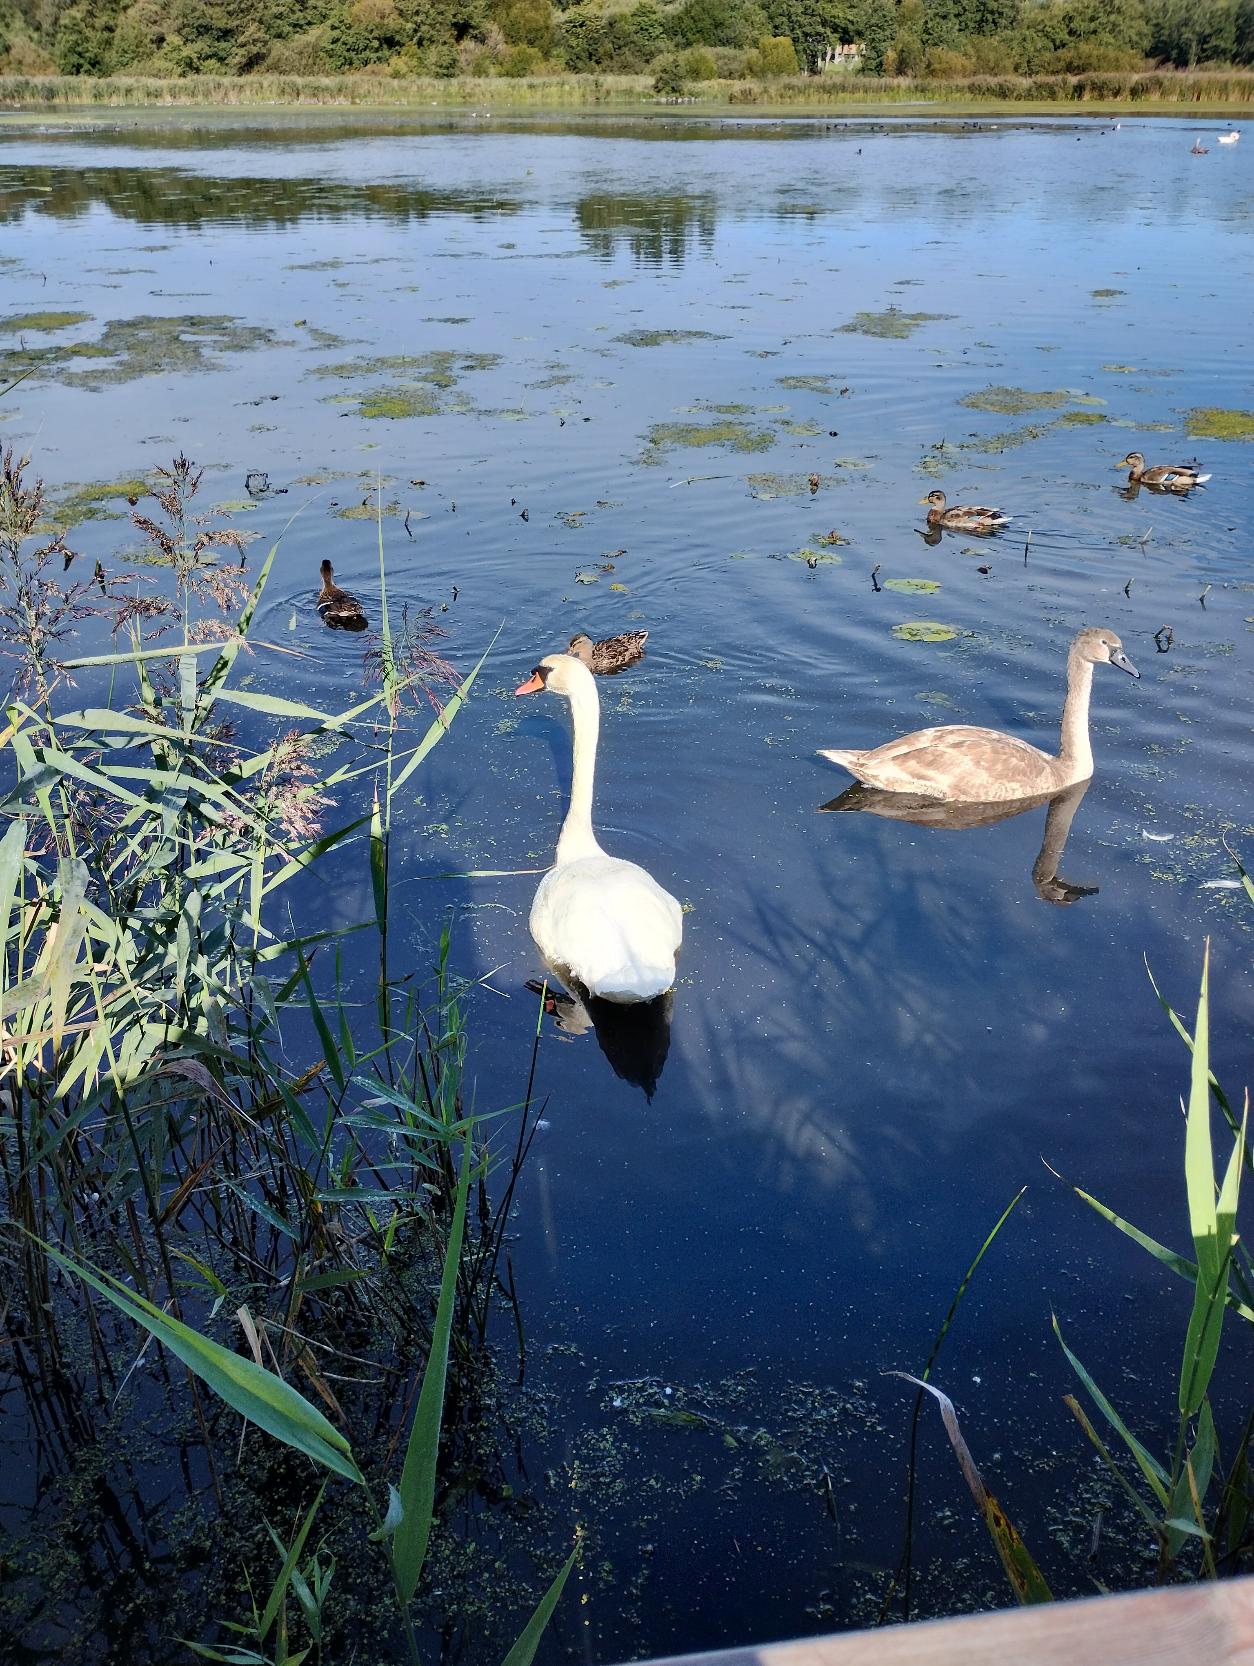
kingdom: Animalia
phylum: Chordata
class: Aves
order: Anseriformes
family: Anatidae
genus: Cygnus
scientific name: Cygnus olor
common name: Knopsvane
